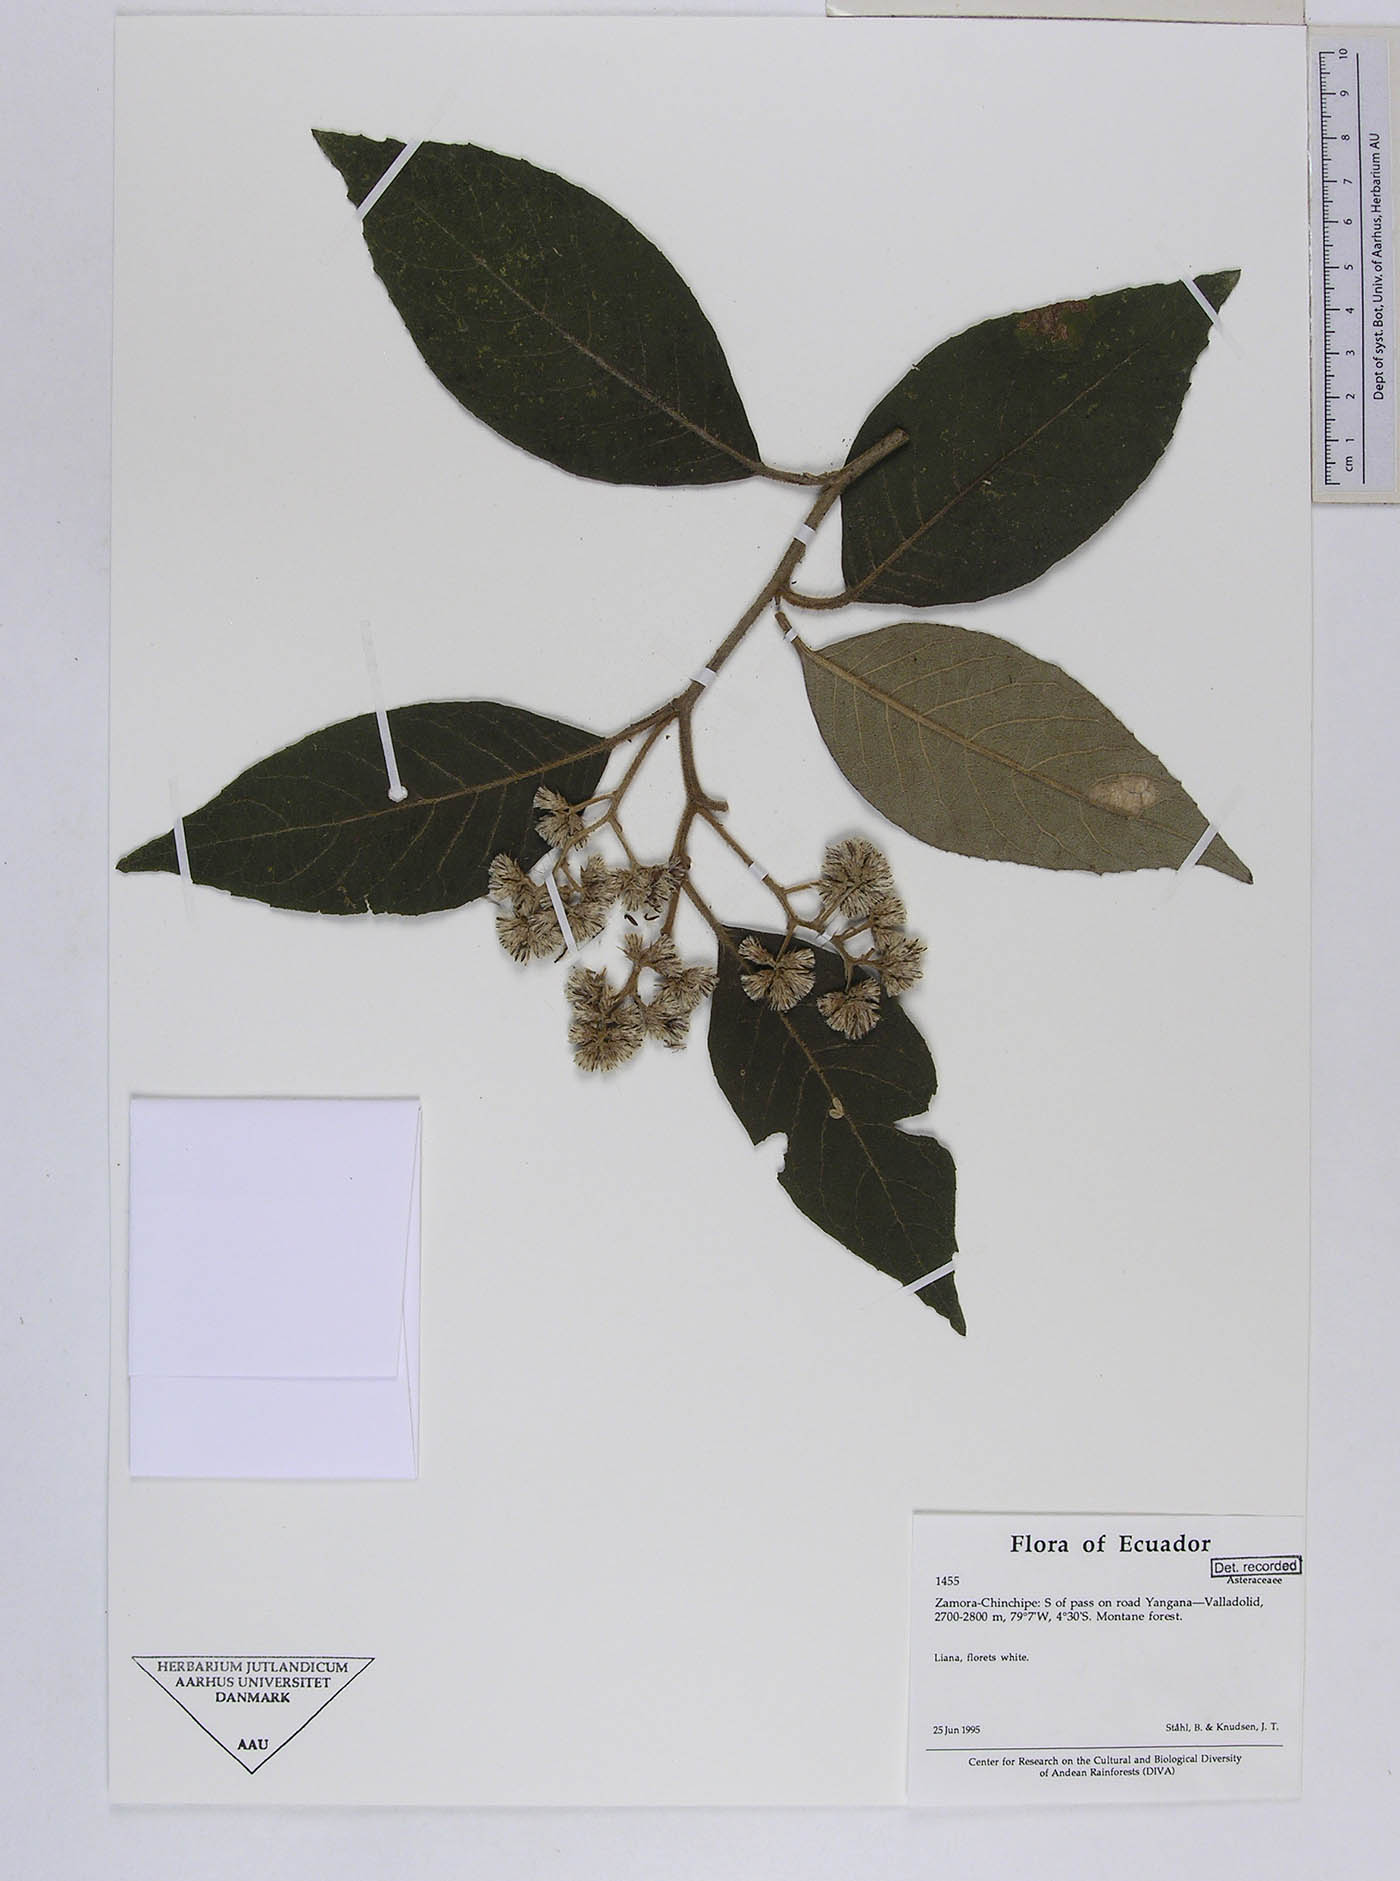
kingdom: Plantae
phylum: Tracheophyta
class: Magnoliopsida
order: Asterales
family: Asteraceae
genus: Critoniopsis
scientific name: Critoniopsis cotopaxensis
